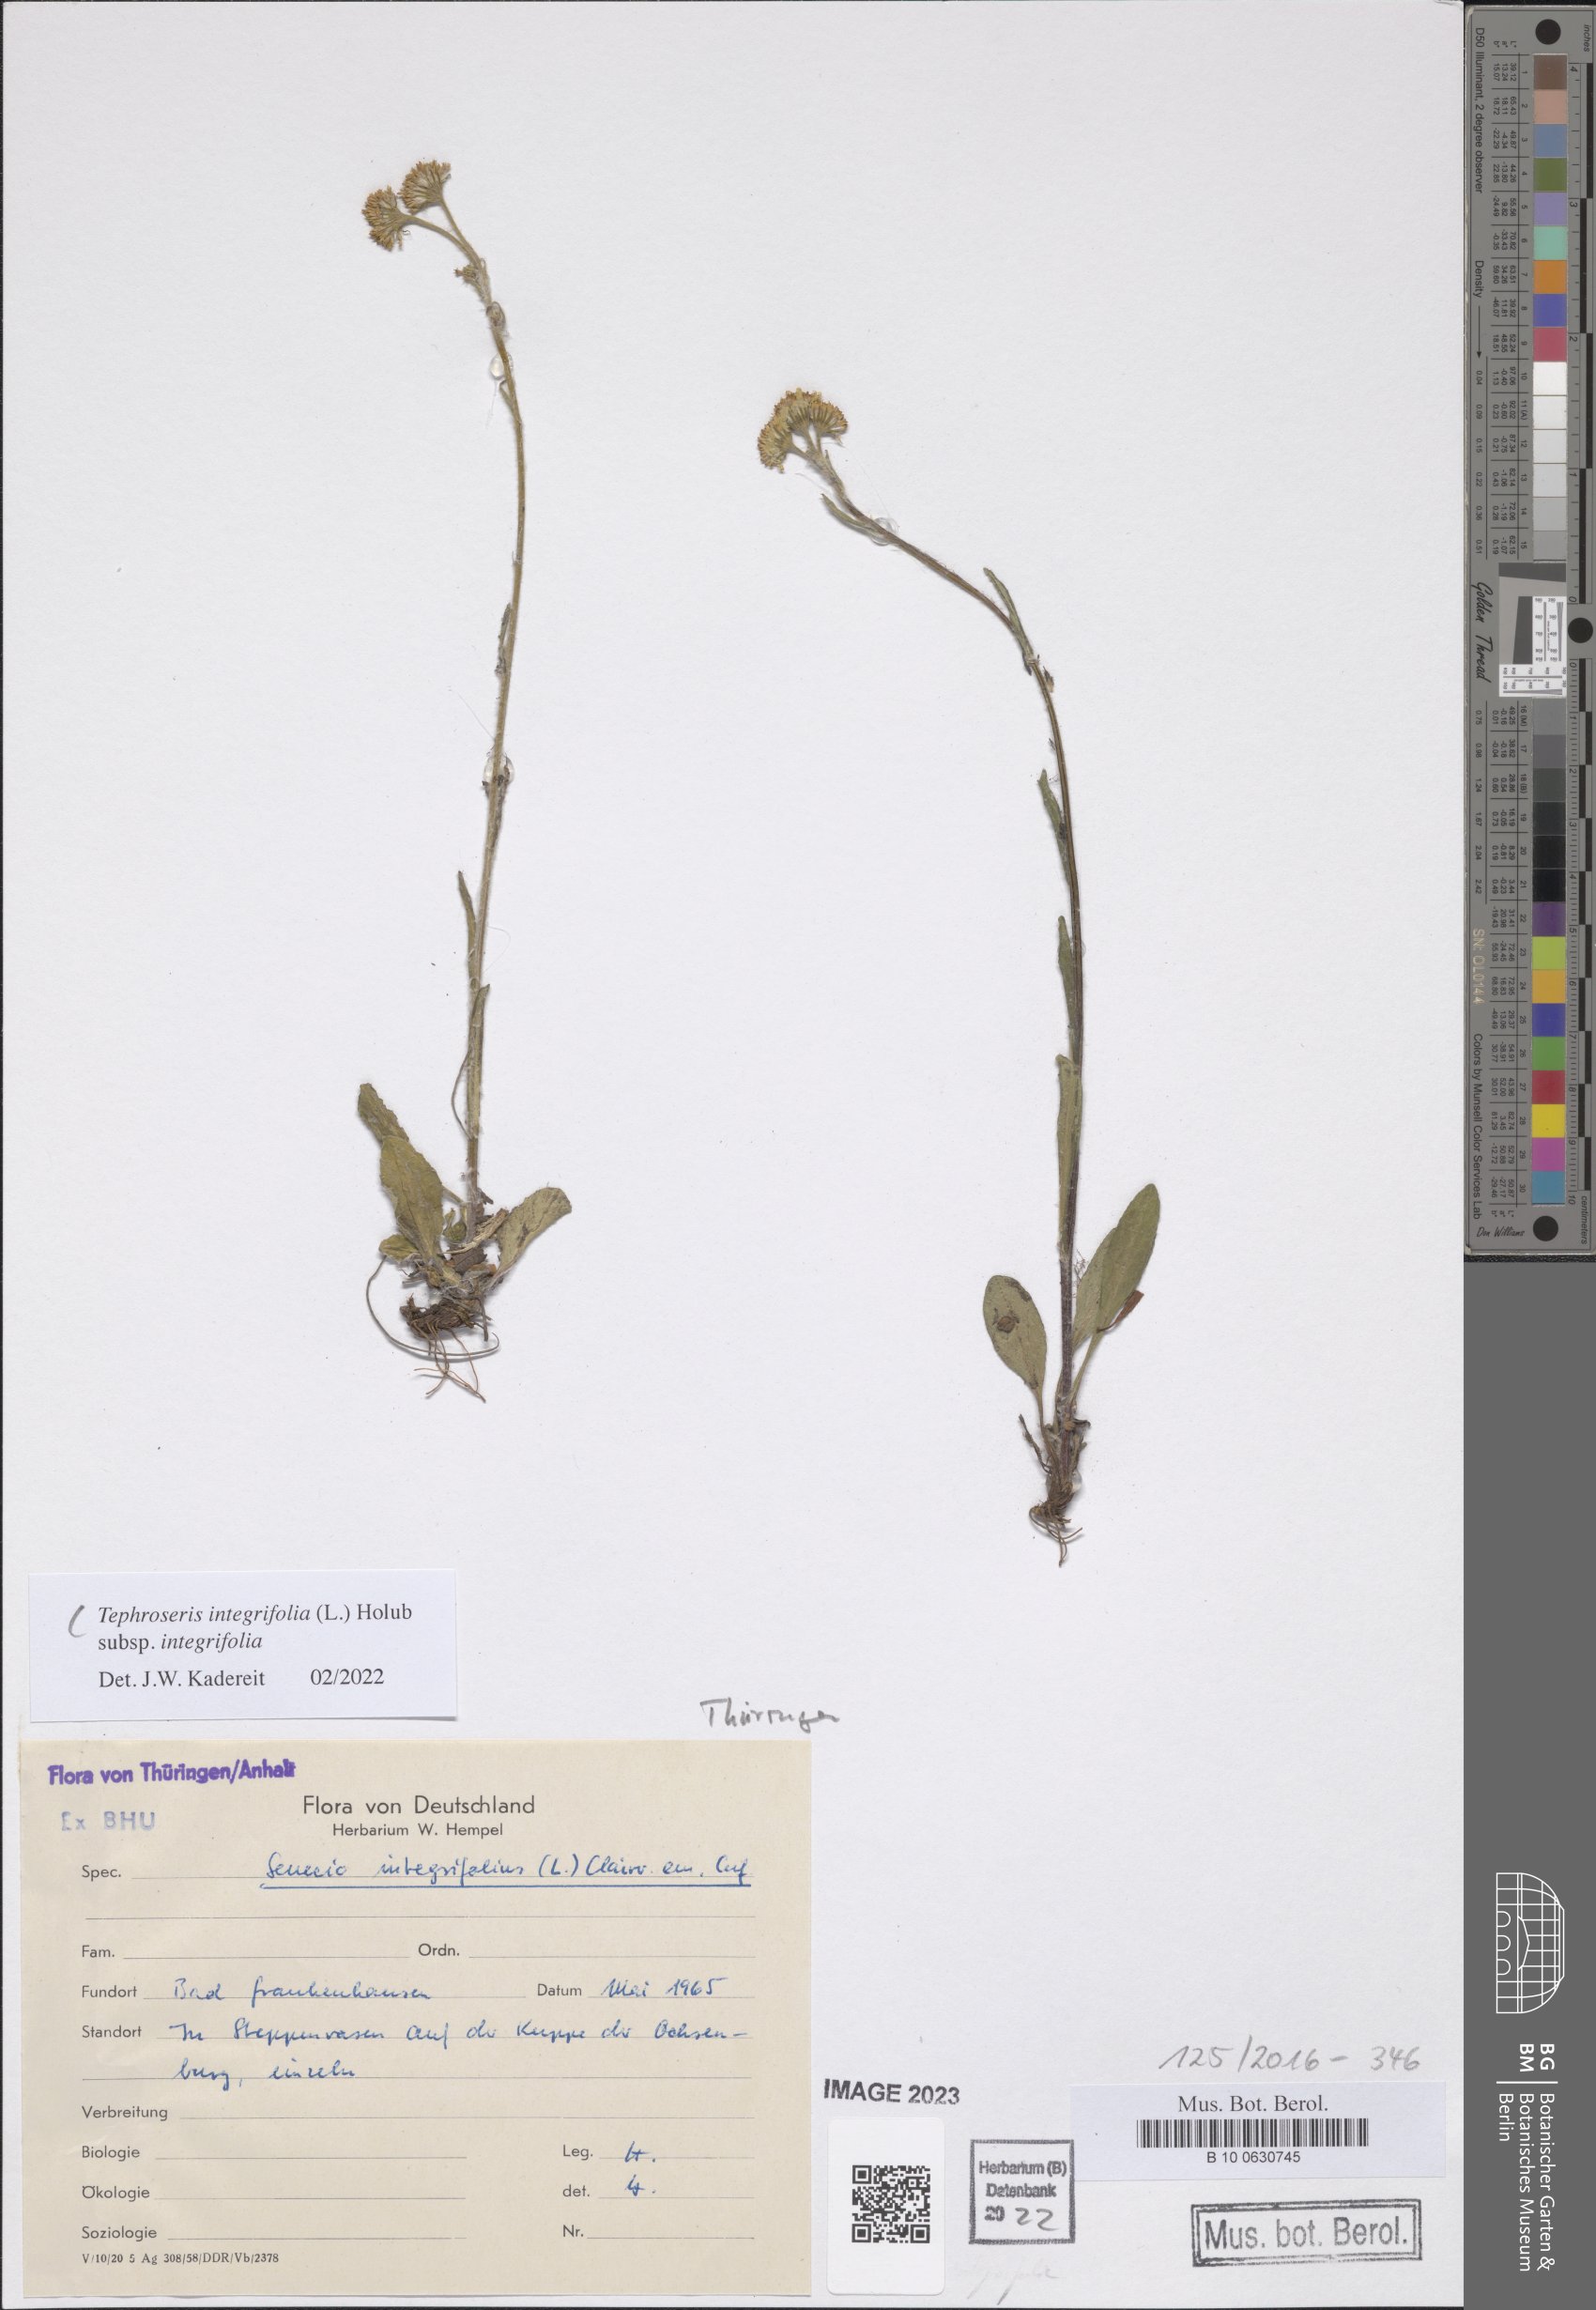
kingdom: Plantae
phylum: Tracheophyta
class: Magnoliopsida
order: Asterales
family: Asteraceae
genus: Tephroseris
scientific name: Tephroseris integrifolia
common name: Field fleawort
